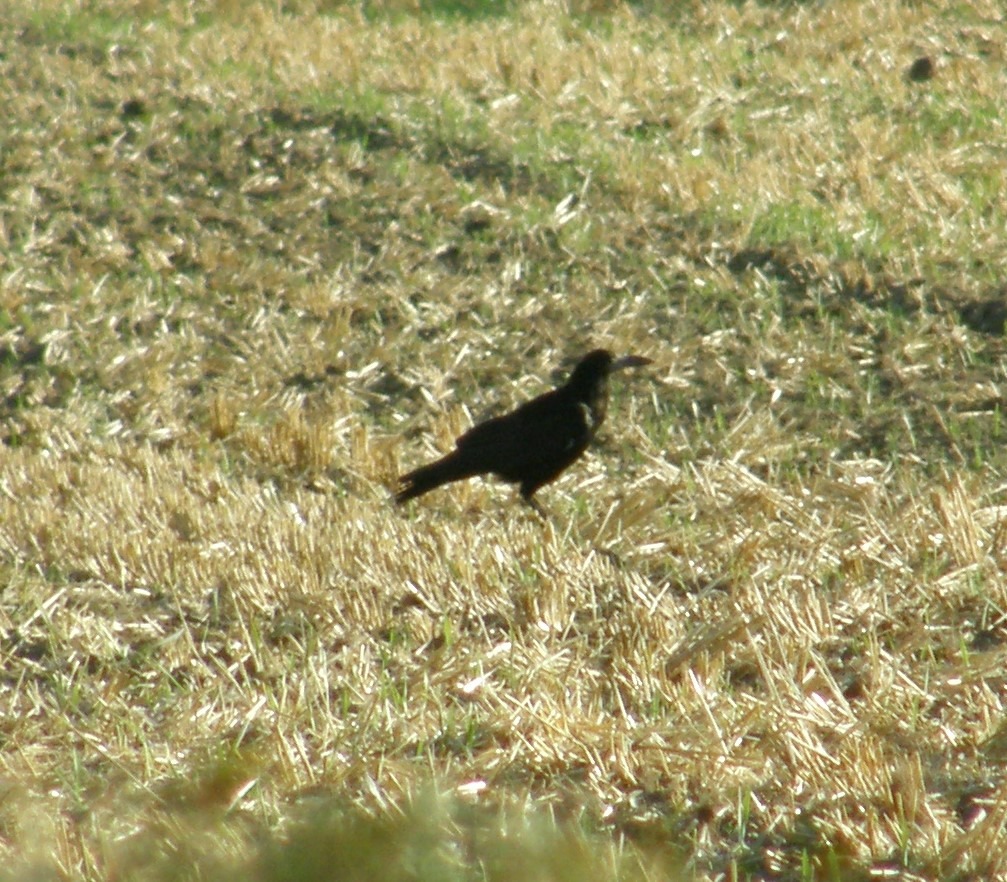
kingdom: Animalia
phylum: Chordata
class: Aves
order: Passeriformes
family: Corvidae
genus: Corvus
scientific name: Corvus frugilegus
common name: Råge
